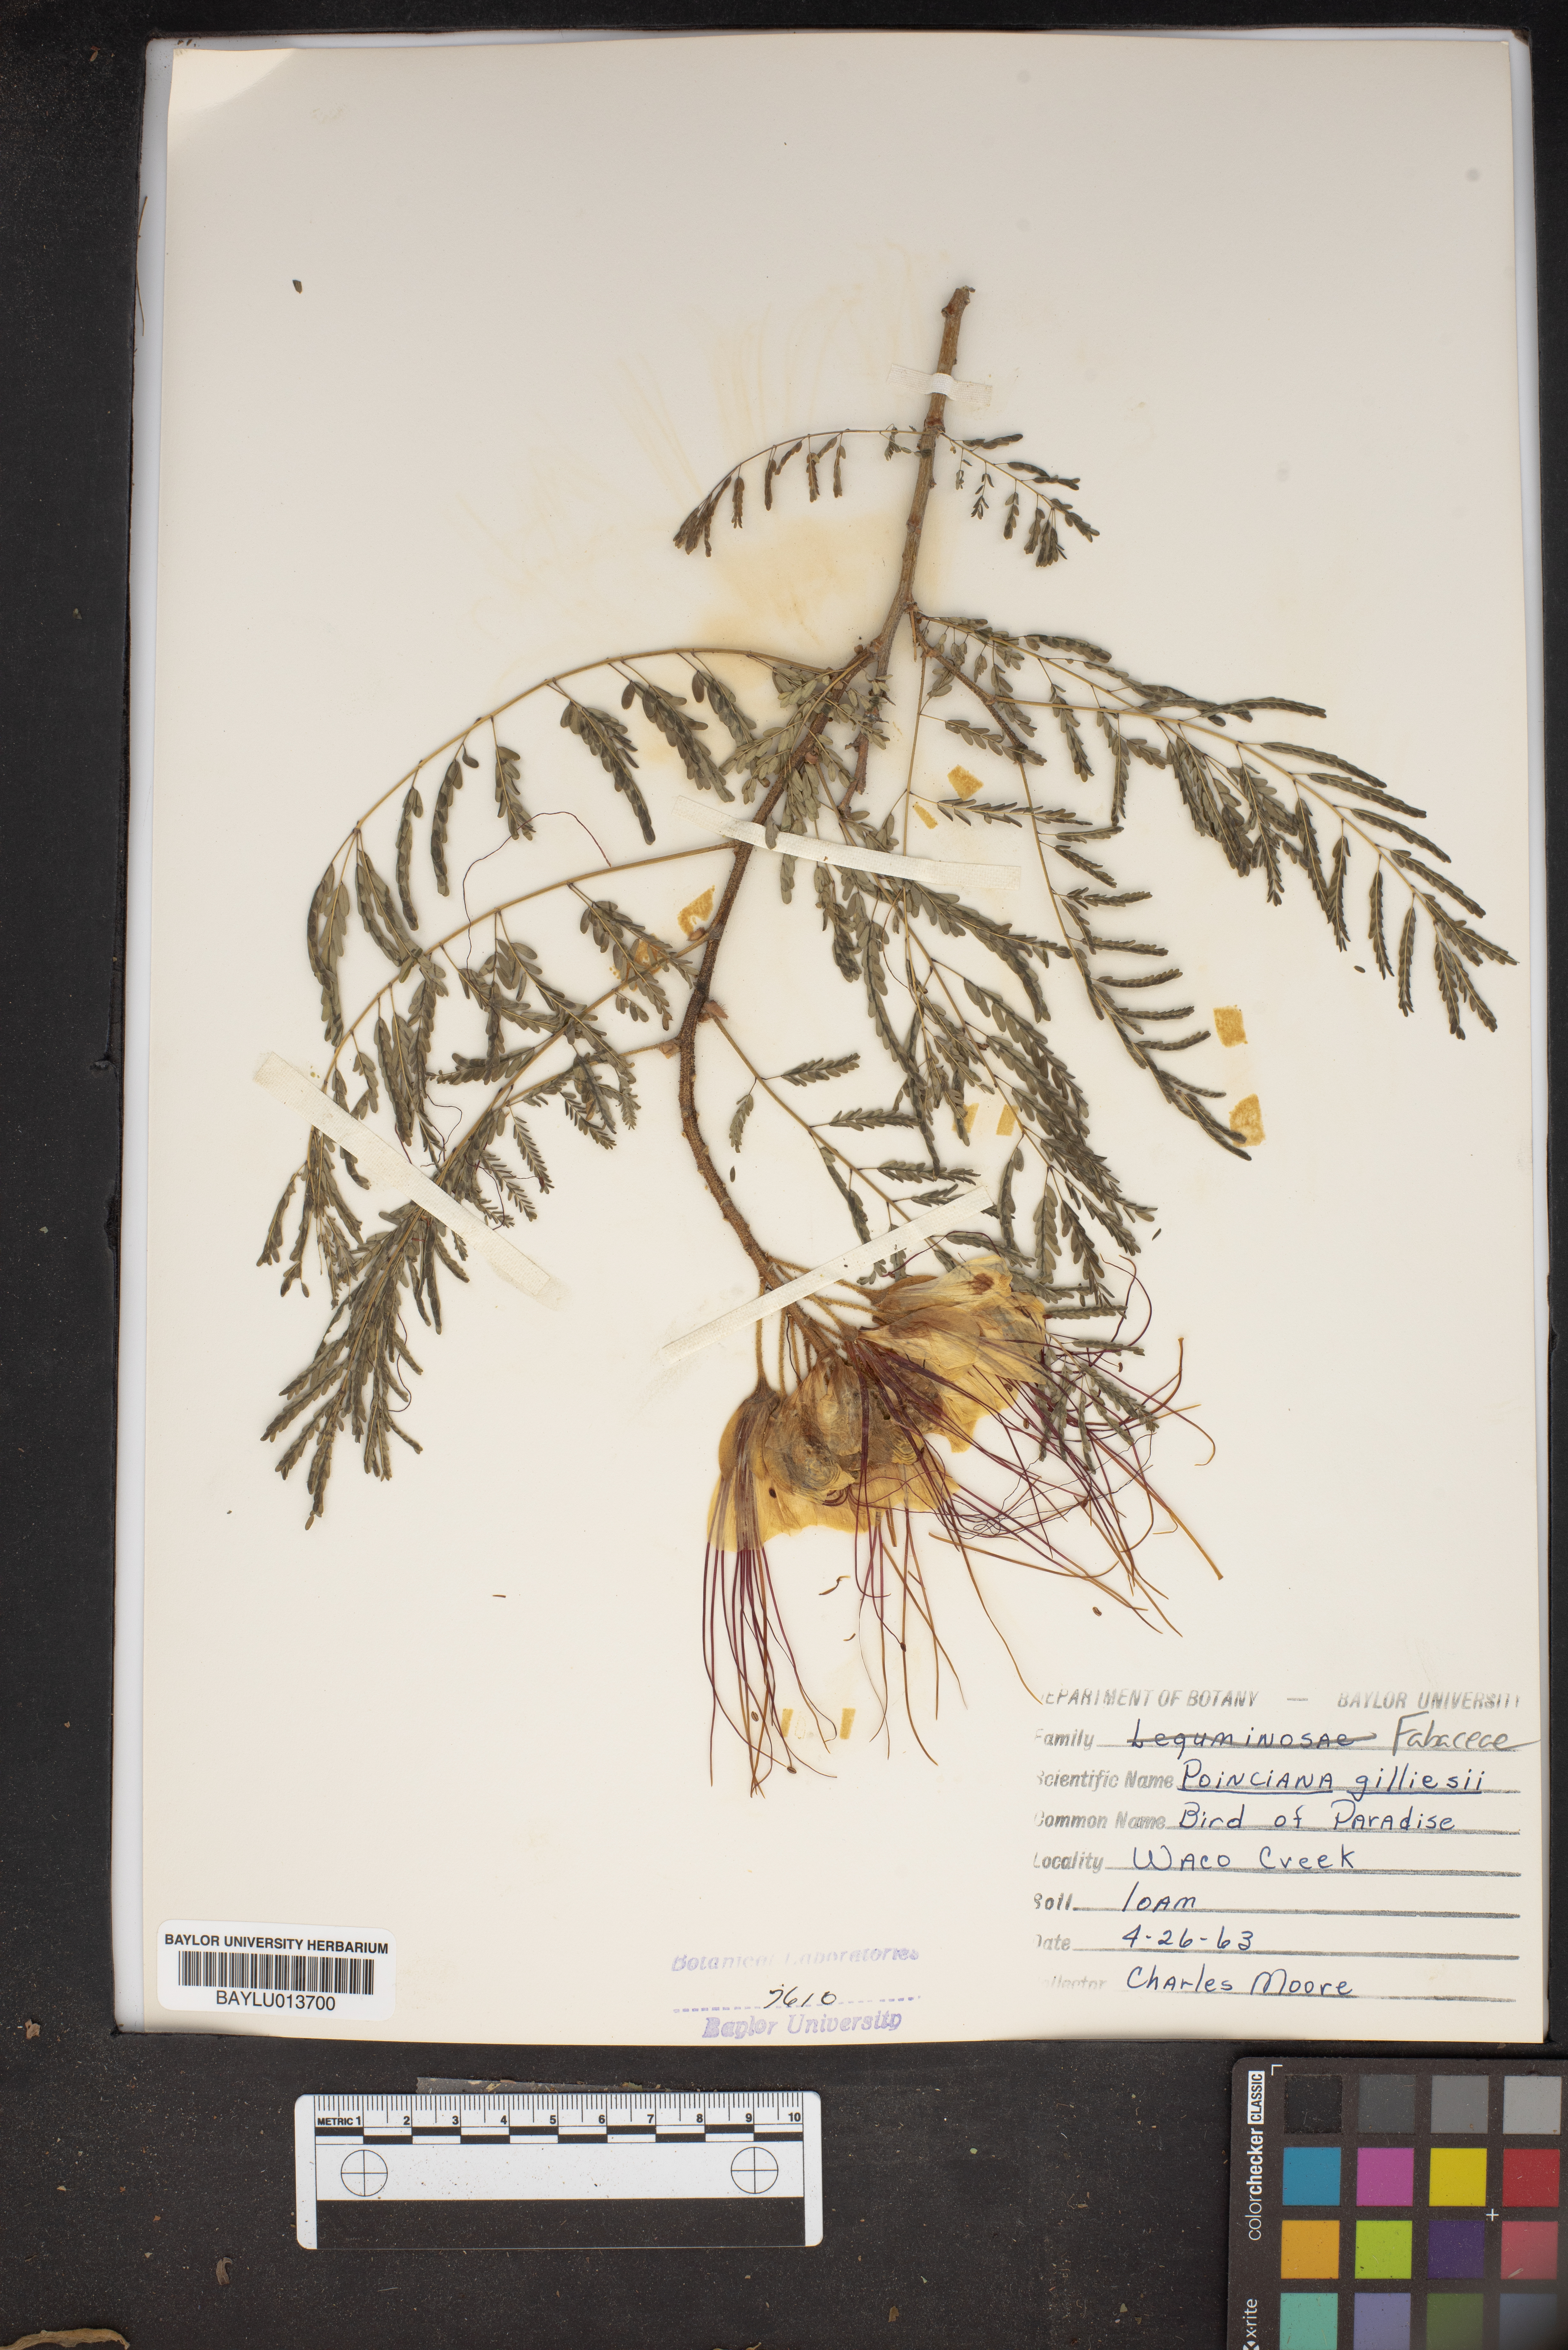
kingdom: Plantae
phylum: Tracheophyta
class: Magnoliopsida
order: Fabales
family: Fabaceae
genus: Erythrostemon
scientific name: Erythrostemon gilliesii
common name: Bird-of-paradise shrub
